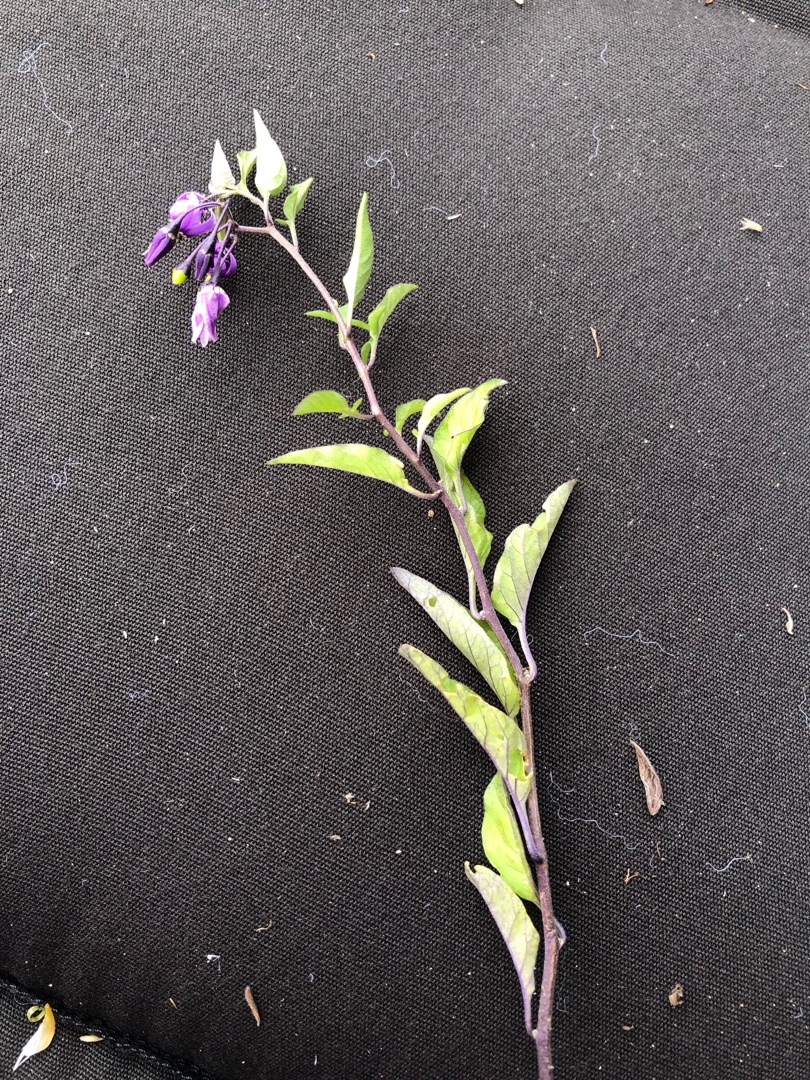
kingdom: Plantae
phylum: Tracheophyta
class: Magnoliopsida
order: Solanales
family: Solanaceae
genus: Solanum
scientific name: Solanum dulcamara
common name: Bittersød natskygge
